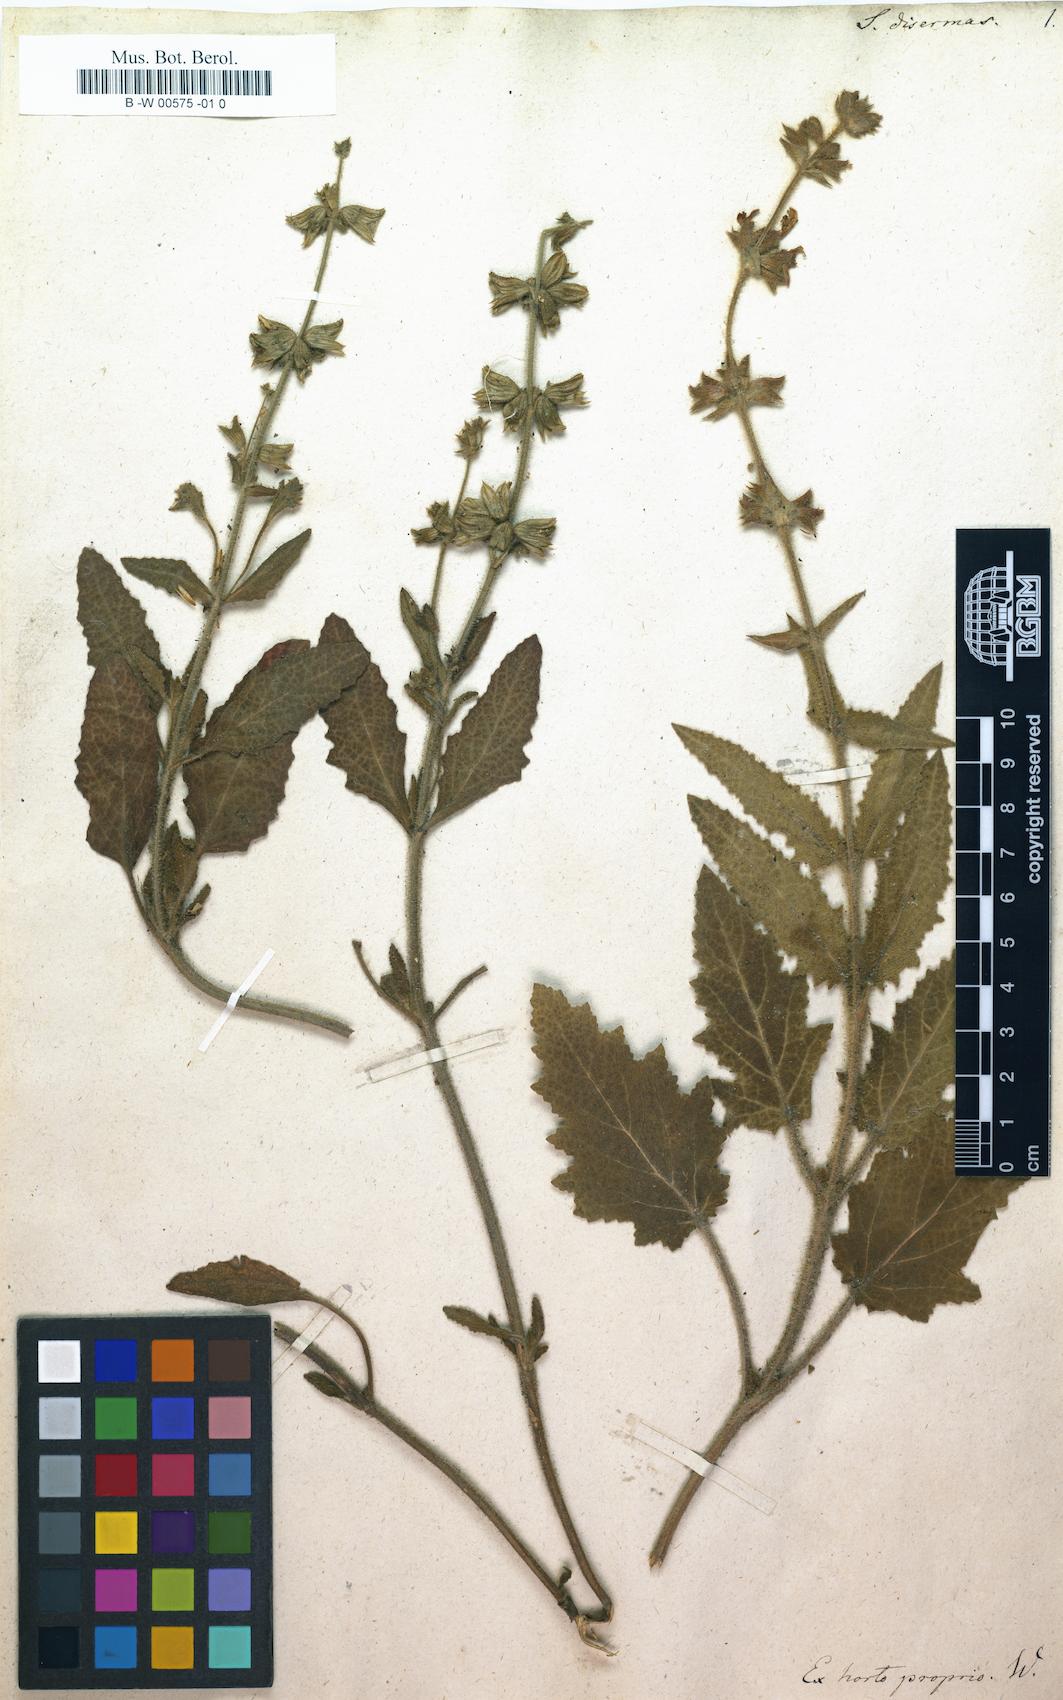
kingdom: Plantae
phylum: Tracheophyta
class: Magnoliopsida
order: Lamiales
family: Lamiaceae
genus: Salvia
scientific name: Salvia disermas
